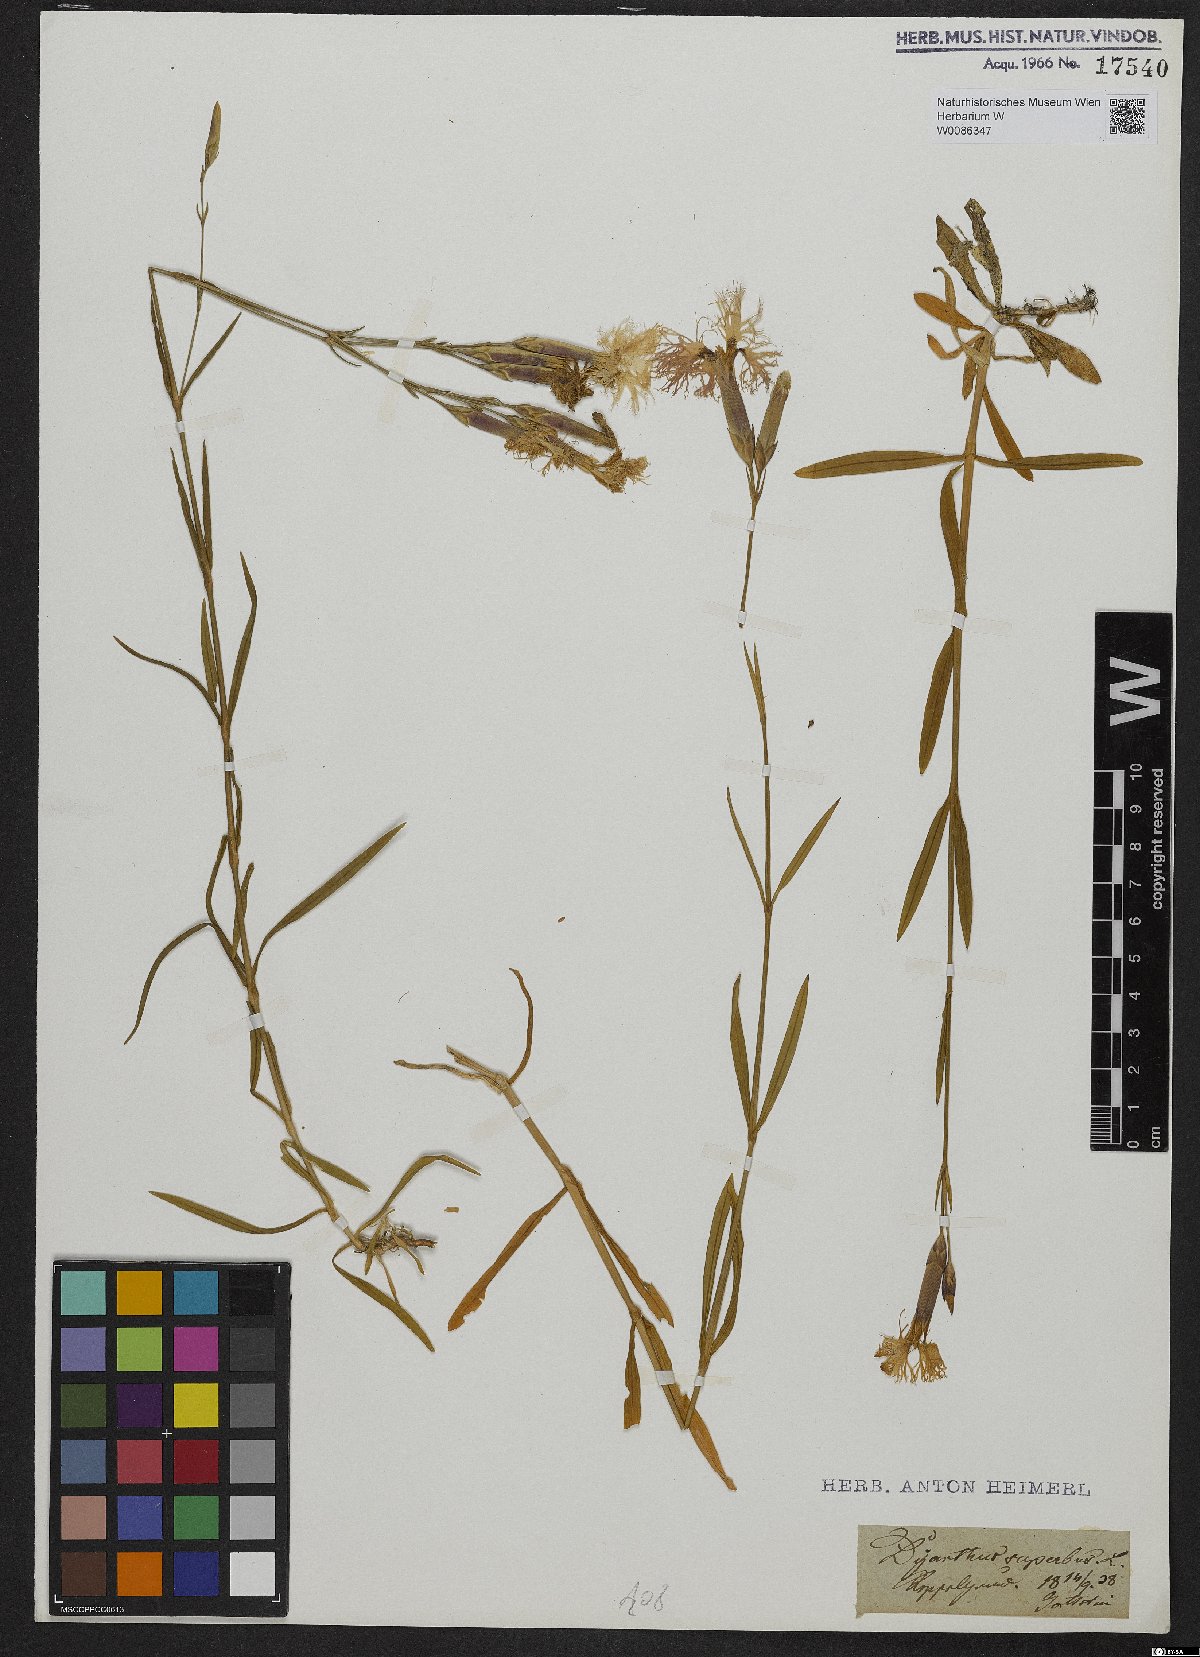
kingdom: Plantae
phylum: Tracheophyta
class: Magnoliopsida
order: Caryophyllales
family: Caryophyllaceae
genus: Dianthus
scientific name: Dianthus superbus
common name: Fringed pink
